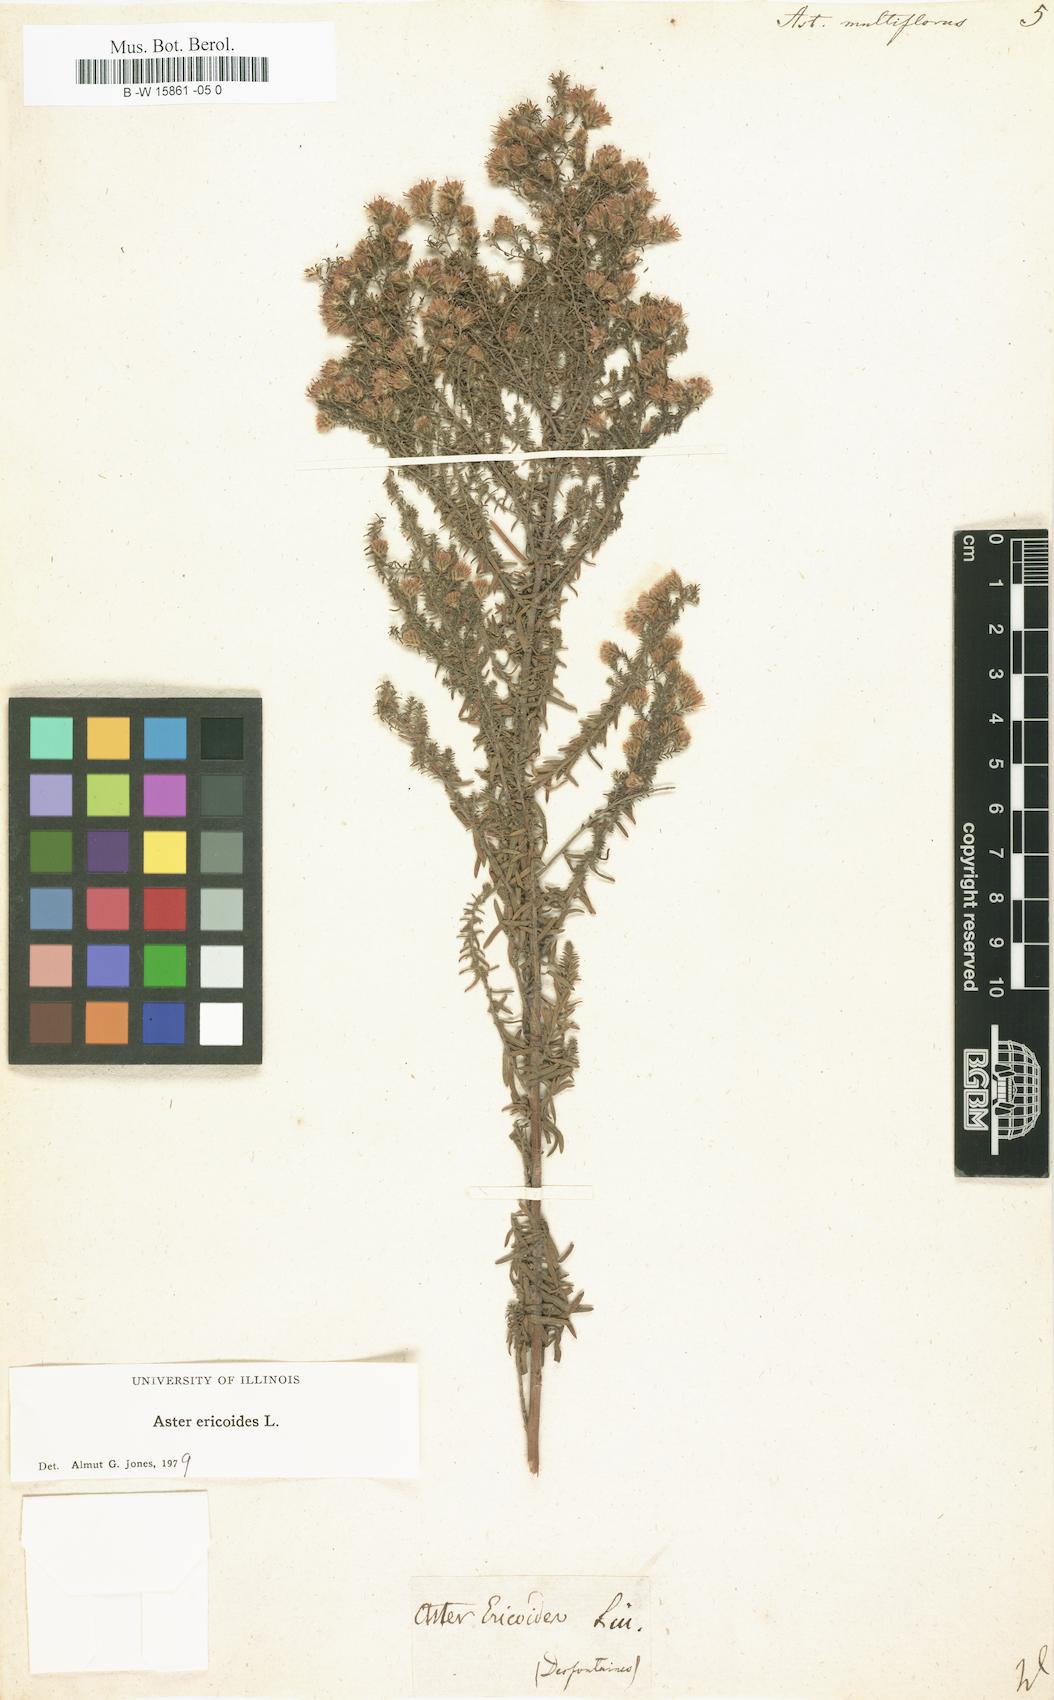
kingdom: Plantae
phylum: Tracheophyta
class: Magnoliopsida
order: Asterales
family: Asteraceae
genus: Symphyotrichum
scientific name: Symphyotrichum ericoides
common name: Heath aster
